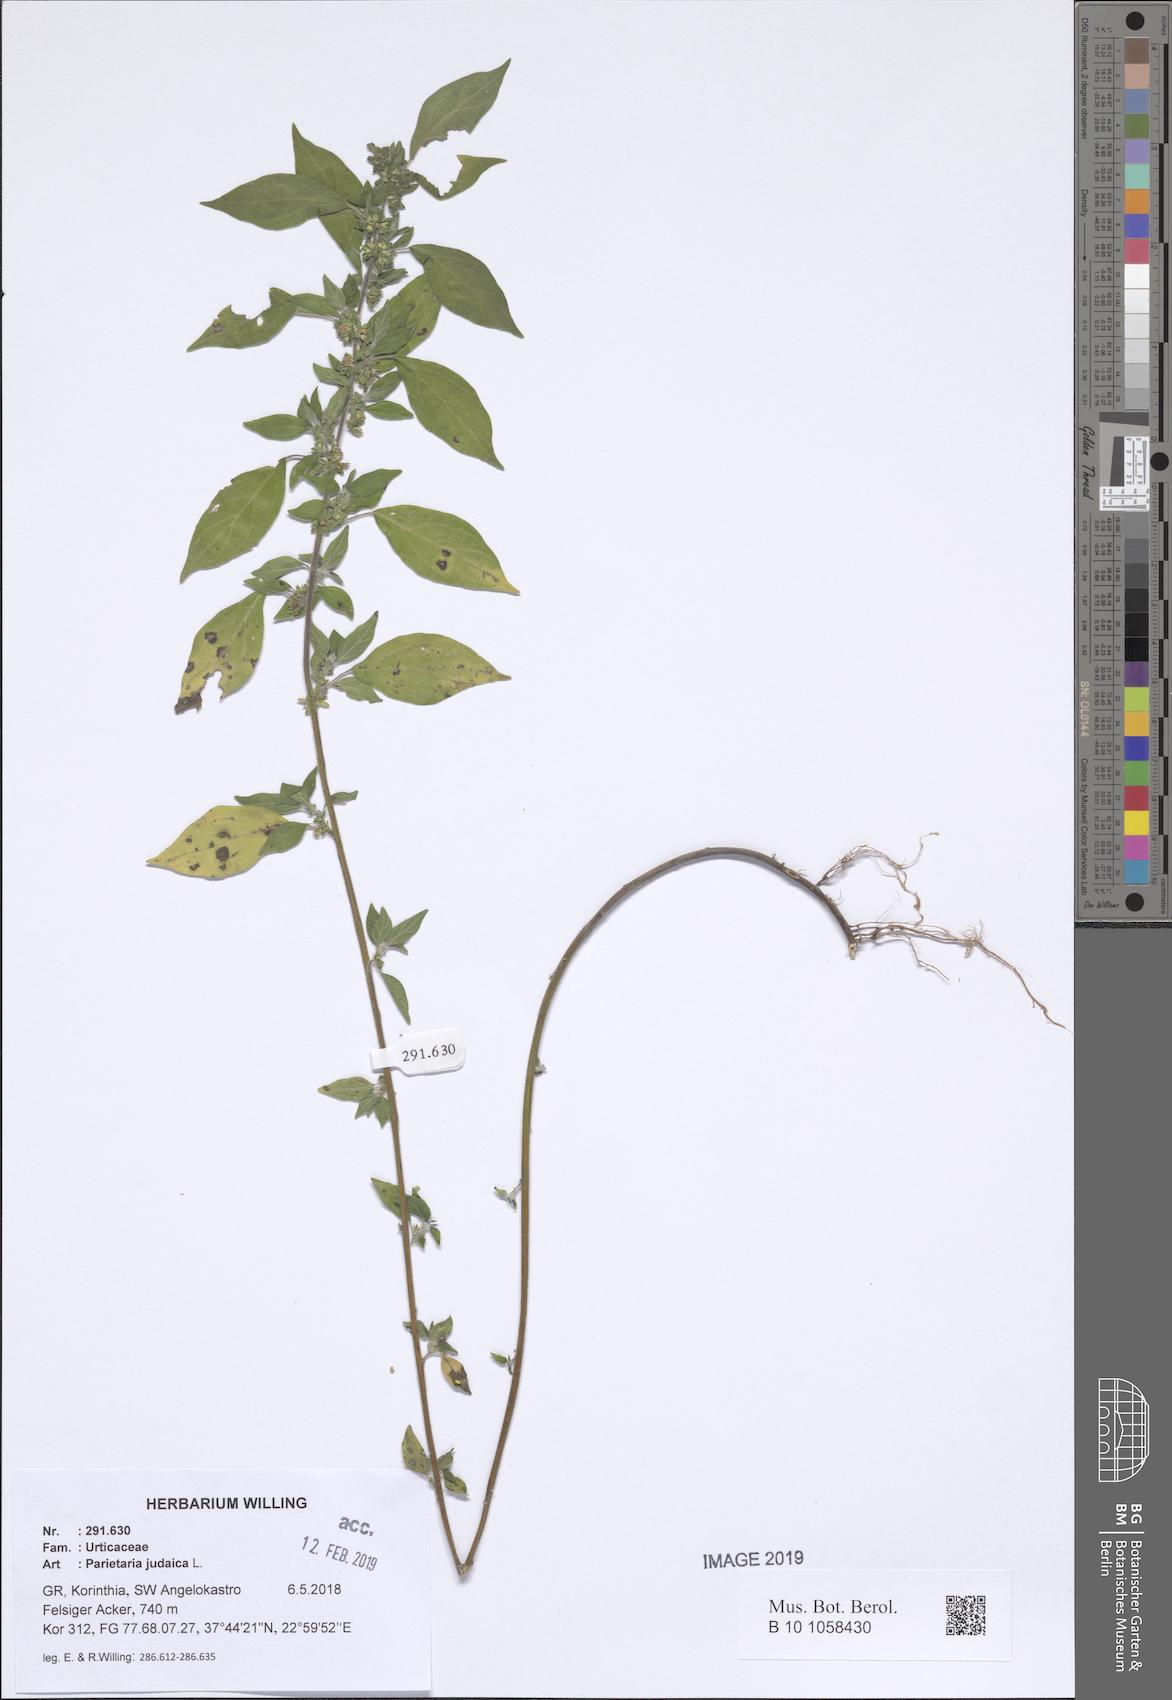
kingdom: Plantae
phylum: Tracheophyta
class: Magnoliopsida
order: Rosales
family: Urticaceae
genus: Parietaria
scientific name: Parietaria judaica
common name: Pellitory-of-the-wall
